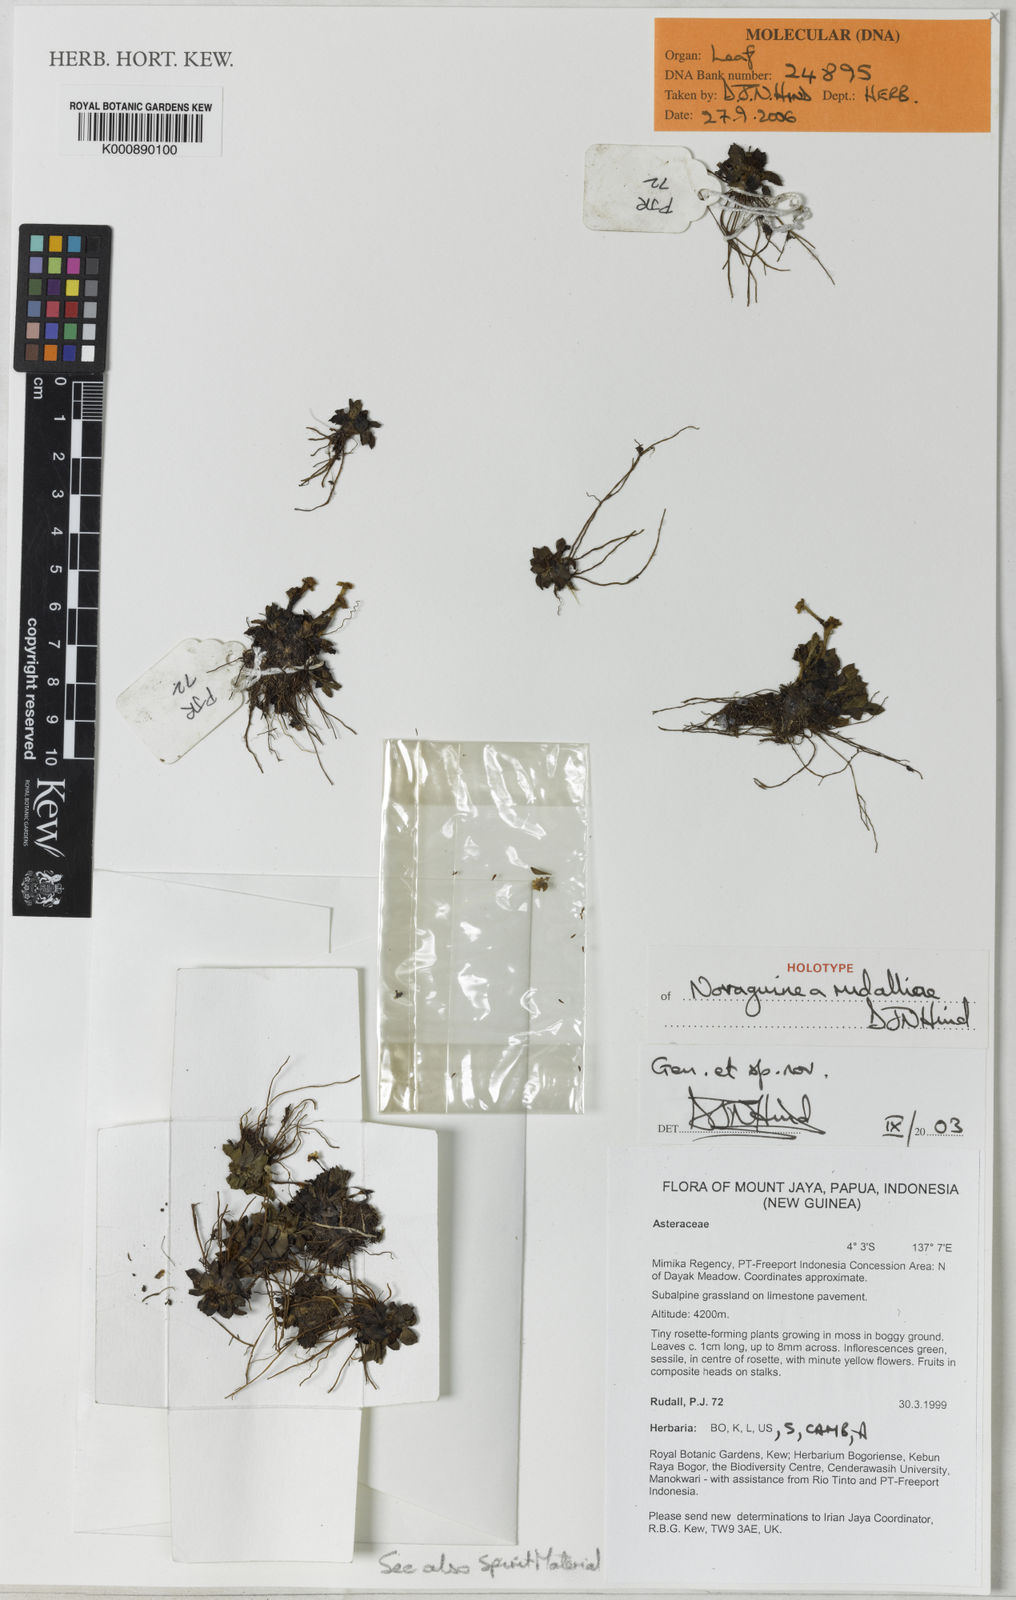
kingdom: Plantae
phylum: Tracheophyta
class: Magnoliopsida
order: Asterales
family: Asteraceae
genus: Novaguinea
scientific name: Novaguinea rudalliae
